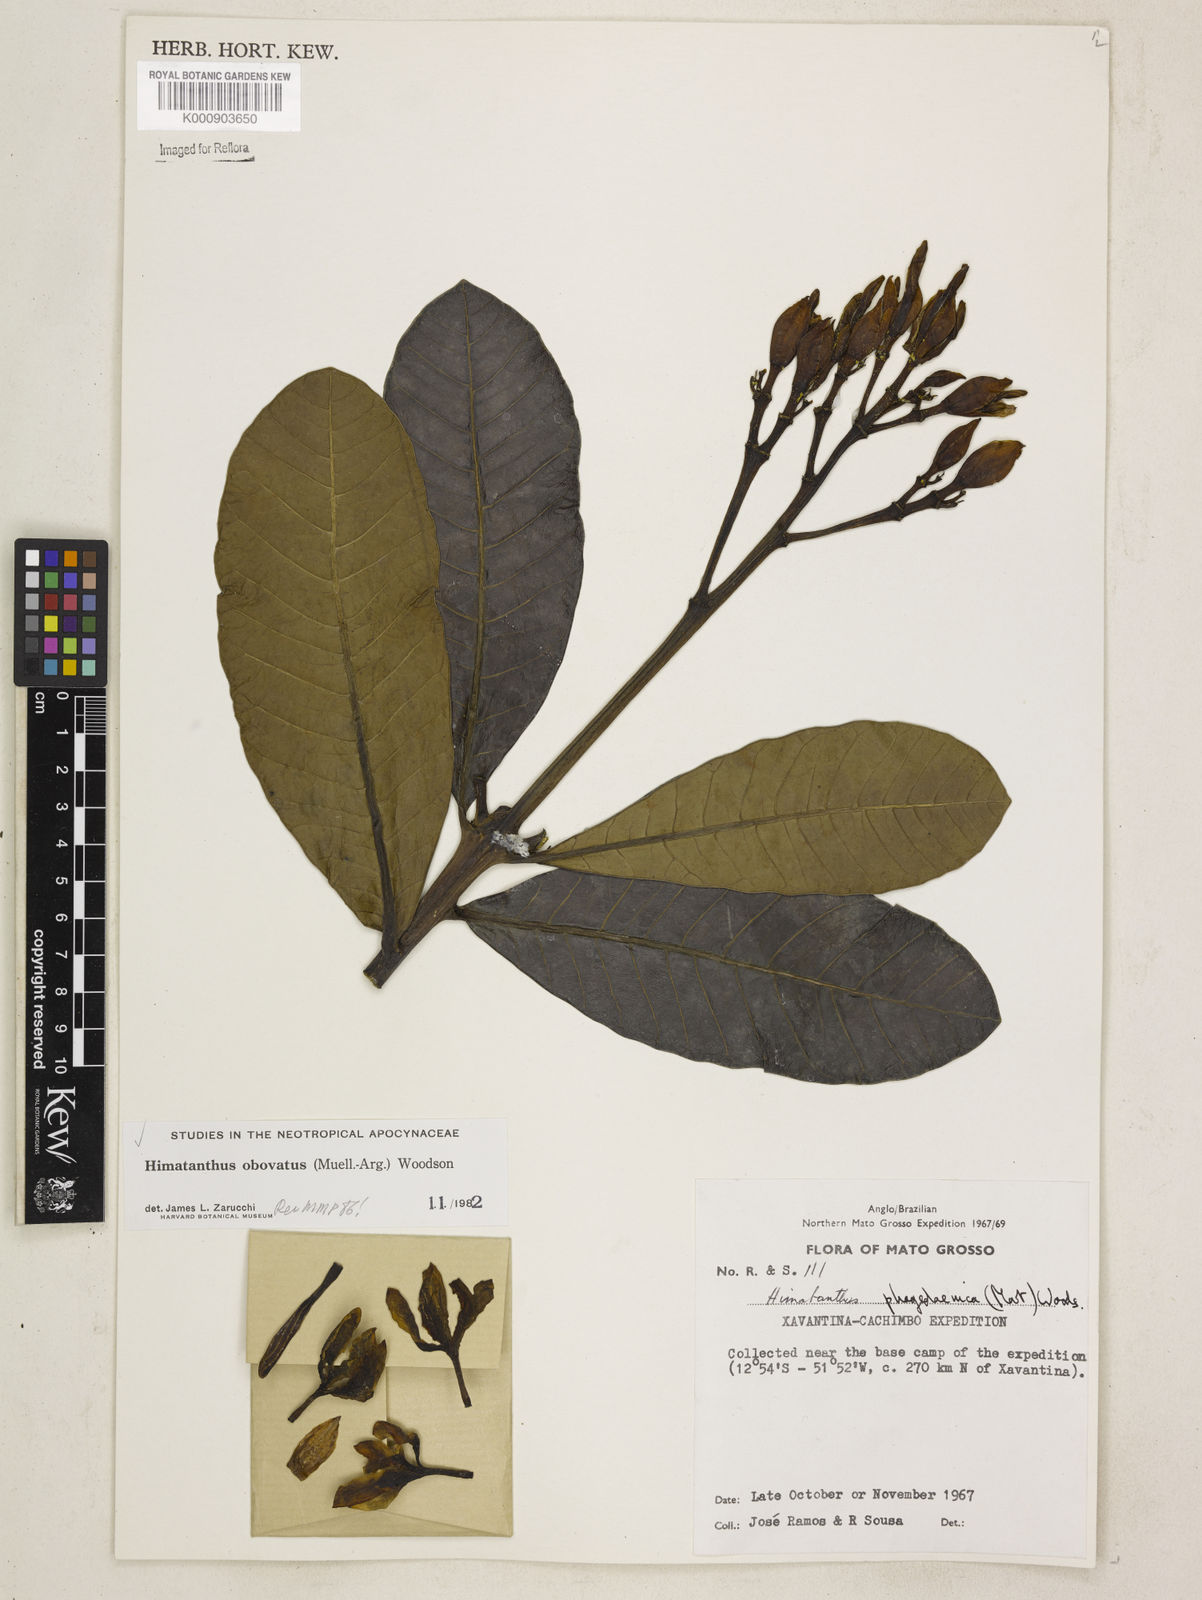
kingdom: Plantae
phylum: Tracheophyta
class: Magnoliopsida
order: Gentianales
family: Apocynaceae
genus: Himatanthus
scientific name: Himatanthus
